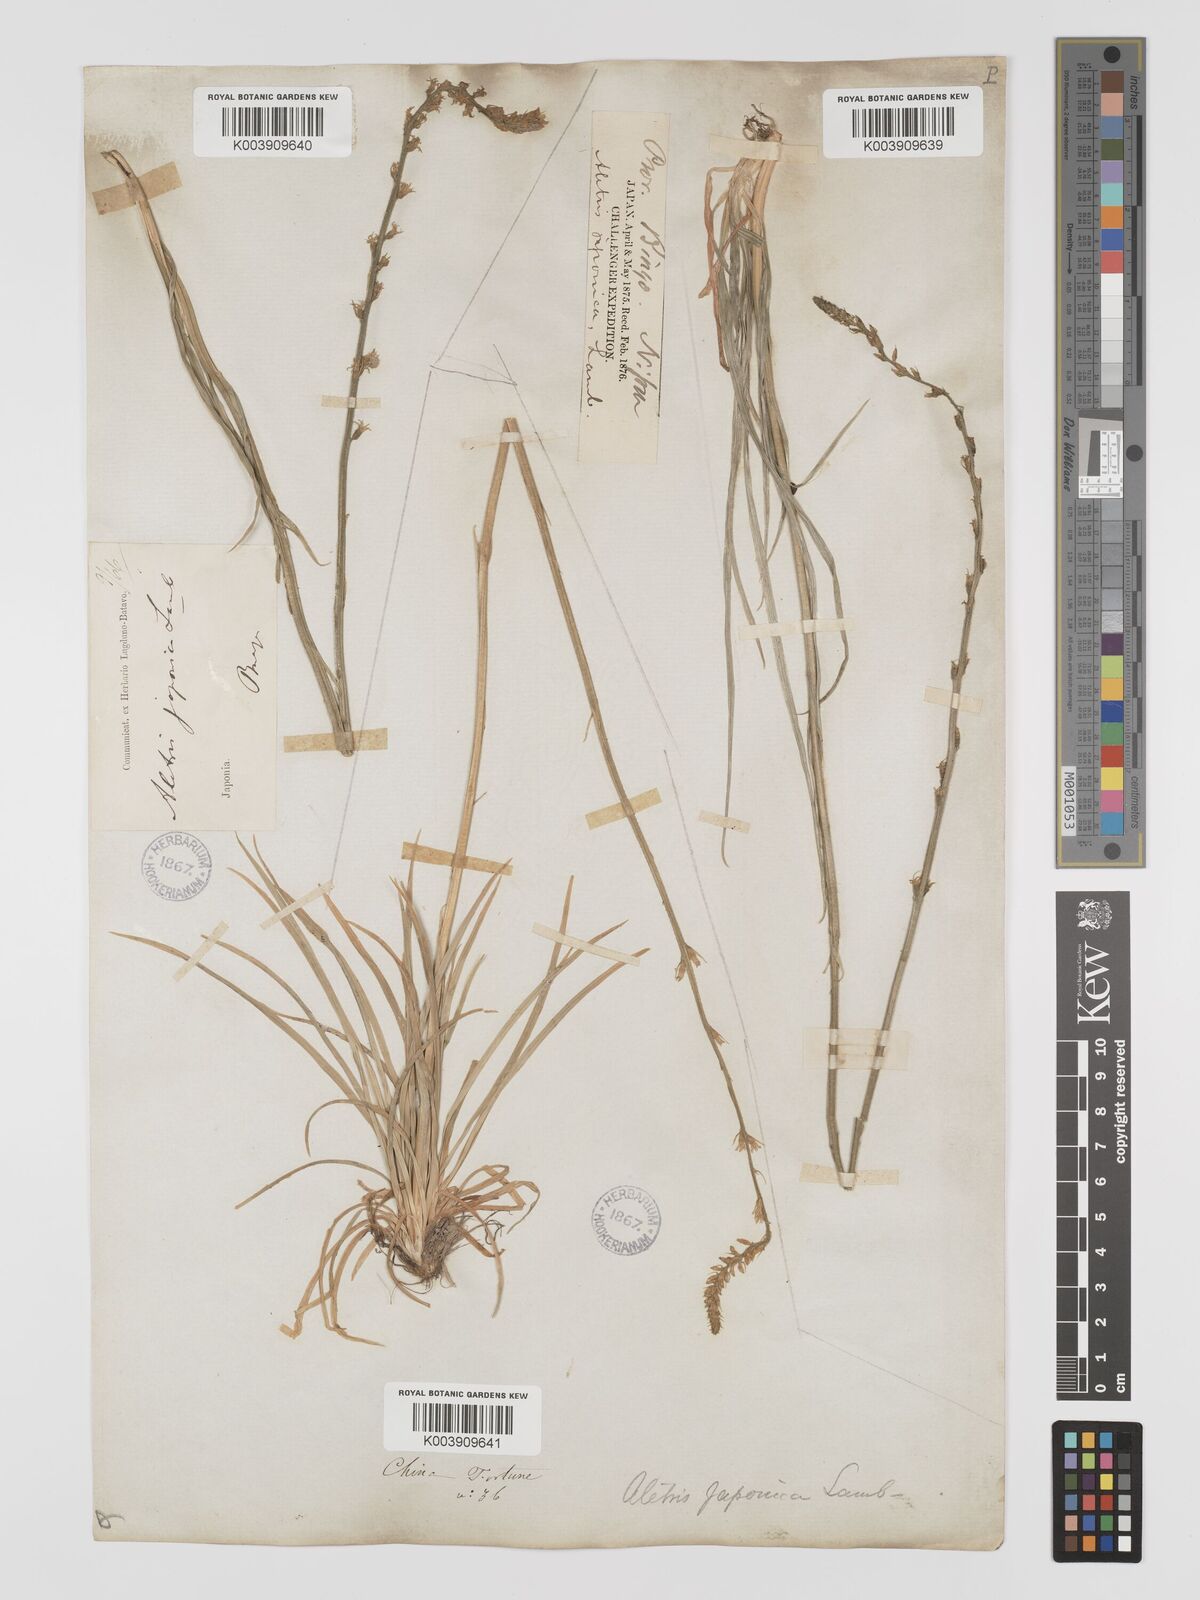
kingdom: Plantae
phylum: Tracheophyta
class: Liliopsida
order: Dioscoreales
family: Nartheciaceae
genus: Aletris
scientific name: Aletris spicata
